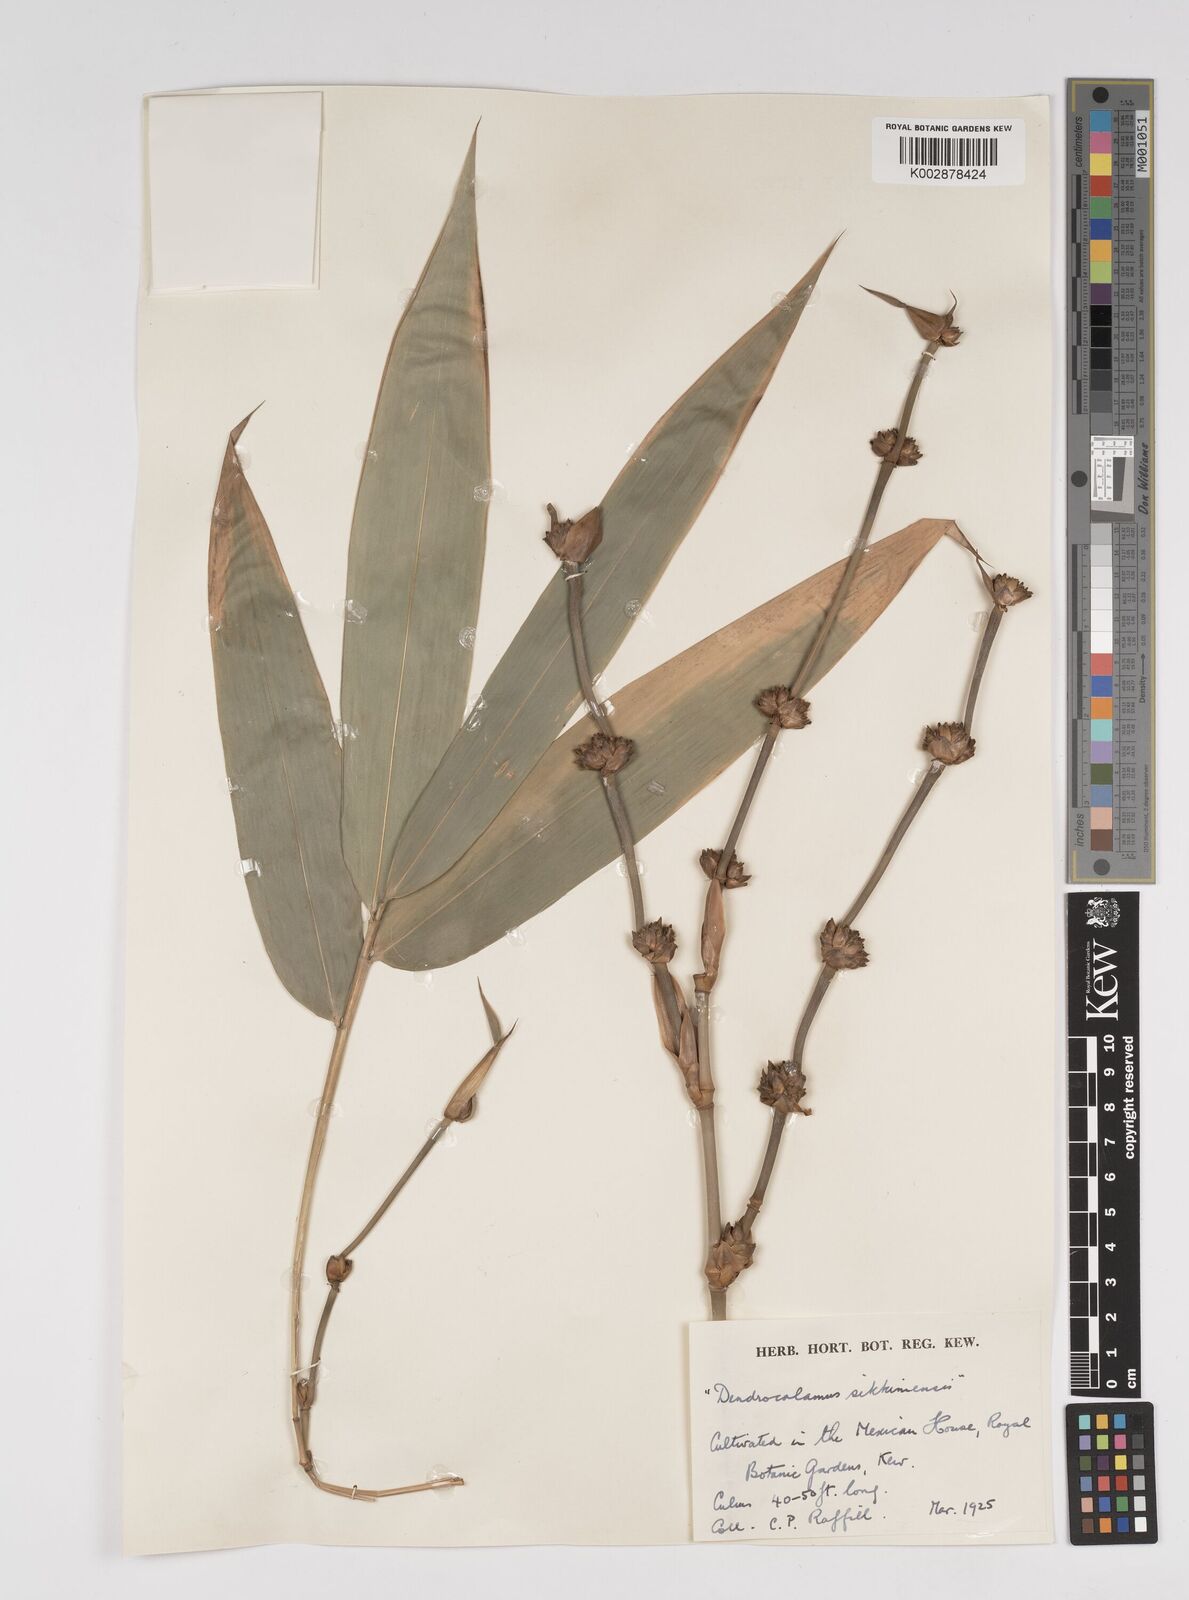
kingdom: Plantae
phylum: Tracheophyta
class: Liliopsida
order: Poales
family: Poaceae
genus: Dendrocalamus
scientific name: Dendrocalamus sikkimensis
